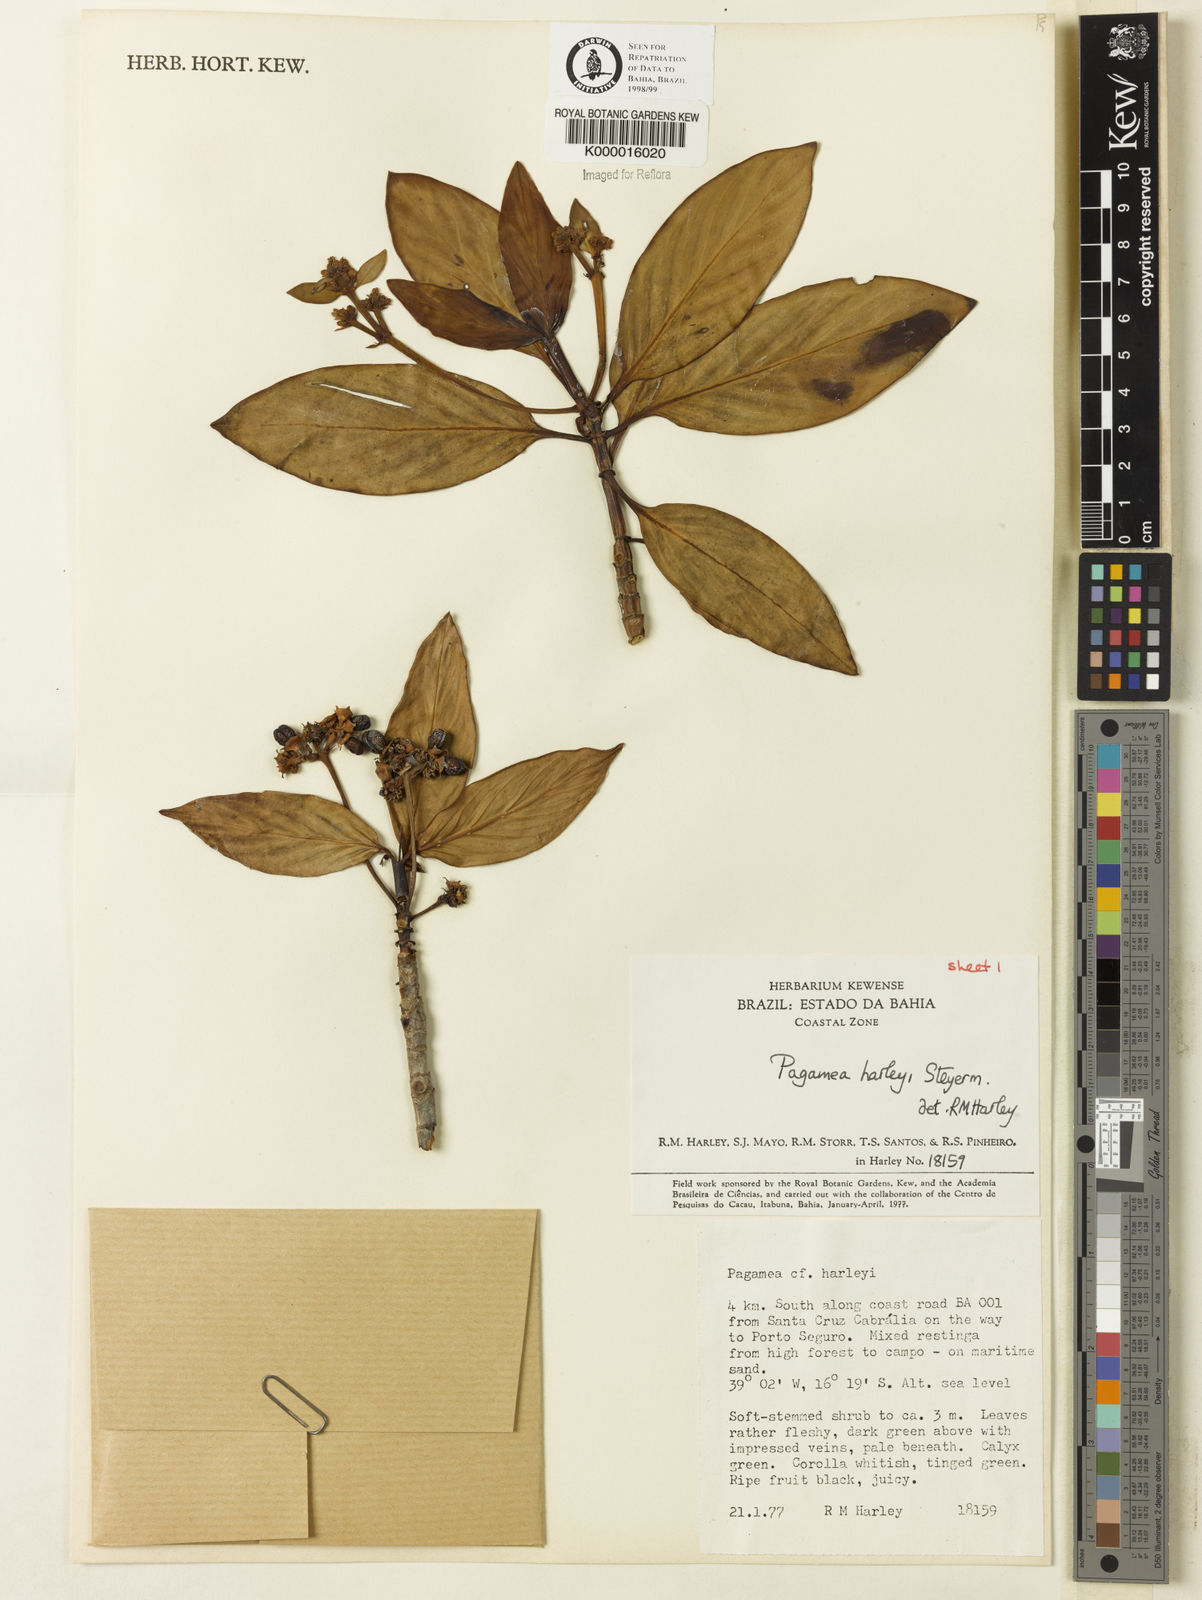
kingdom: Plantae
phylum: Tracheophyta
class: Magnoliopsida
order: Gentianales
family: Rubiaceae
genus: Pagamea
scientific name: Pagamea harleyi
